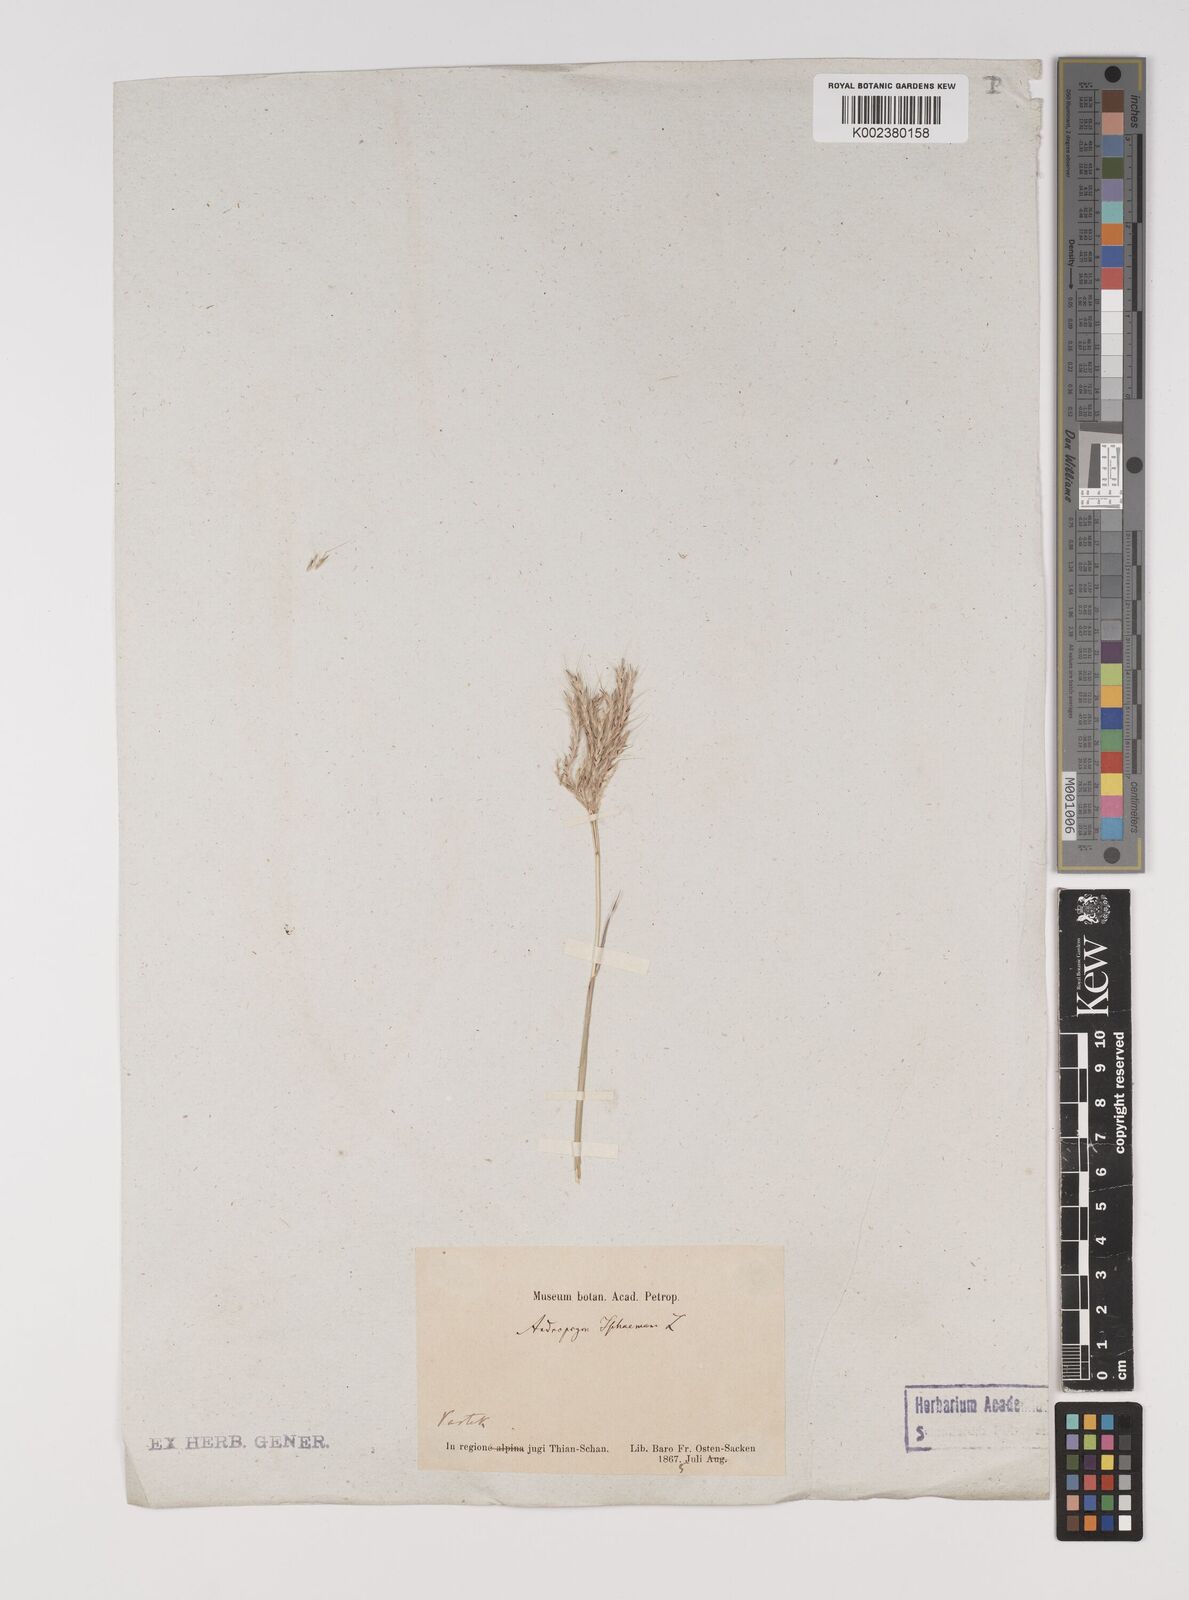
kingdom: Plantae
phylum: Tracheophyta
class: Liliopsida
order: Poales
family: Poaceae
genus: Bothriochloa
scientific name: Bothriochloa ischaemum
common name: Yellow bluestem
